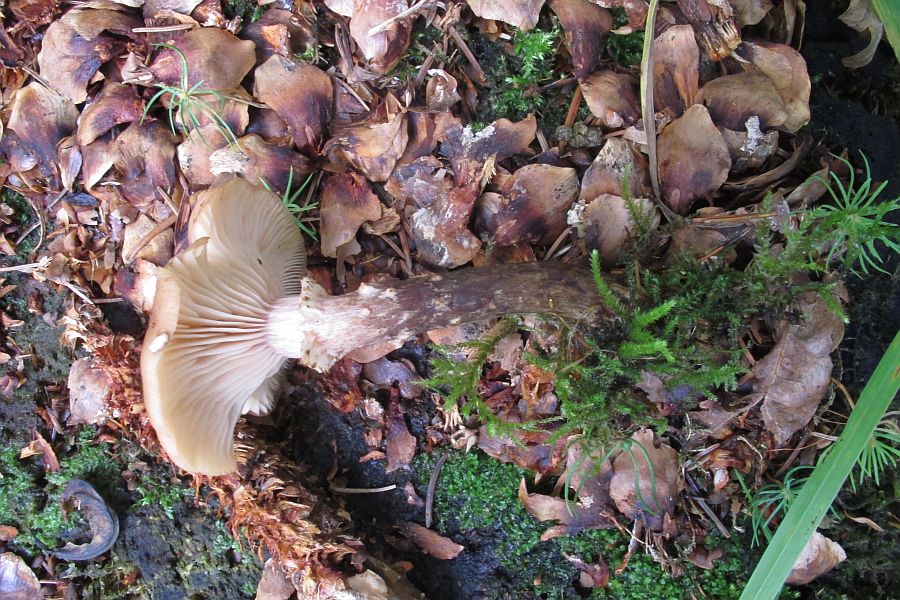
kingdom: Fungi
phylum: Basidiomycota
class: Agaricomycetes
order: Agaricales
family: Physalacriaceae
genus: Armillaria
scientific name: Armillaria ostoyae
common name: mørk honningsvamp
